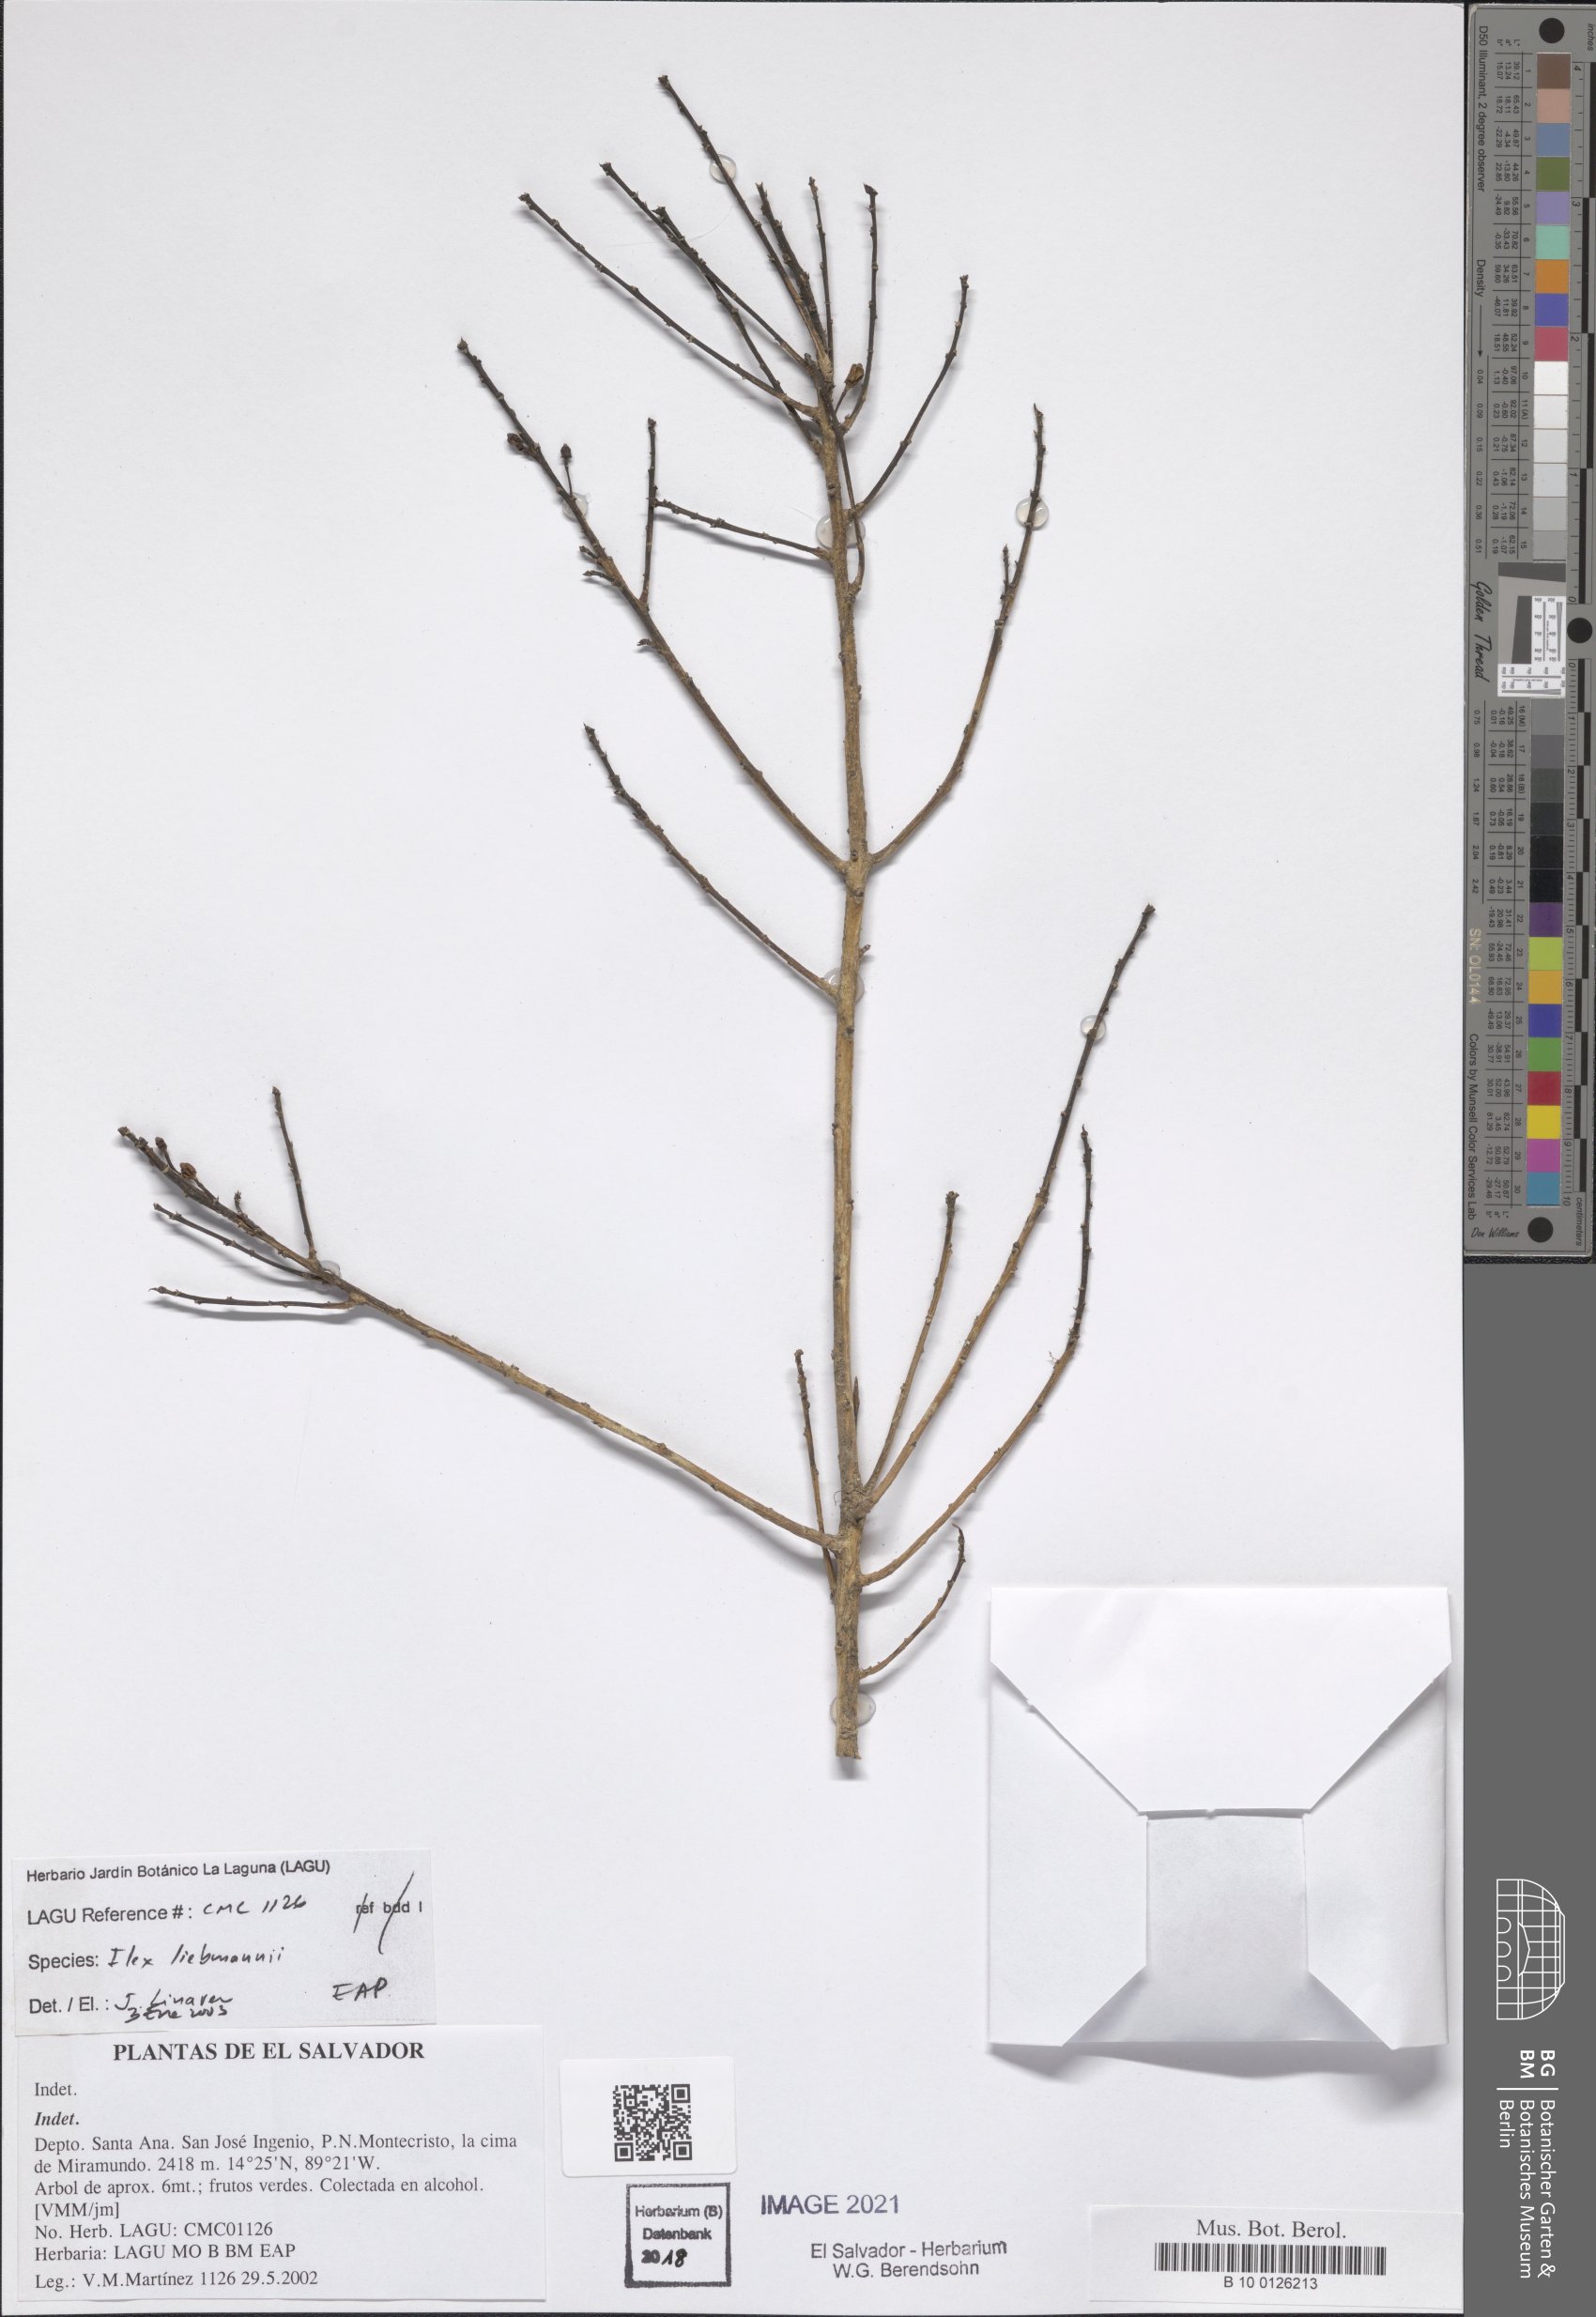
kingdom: Plantae
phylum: Tracheophyta
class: Magnoliopsida
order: Aquifoliales
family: Aquifoliaceae
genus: Ilex
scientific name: Ilex pallida
